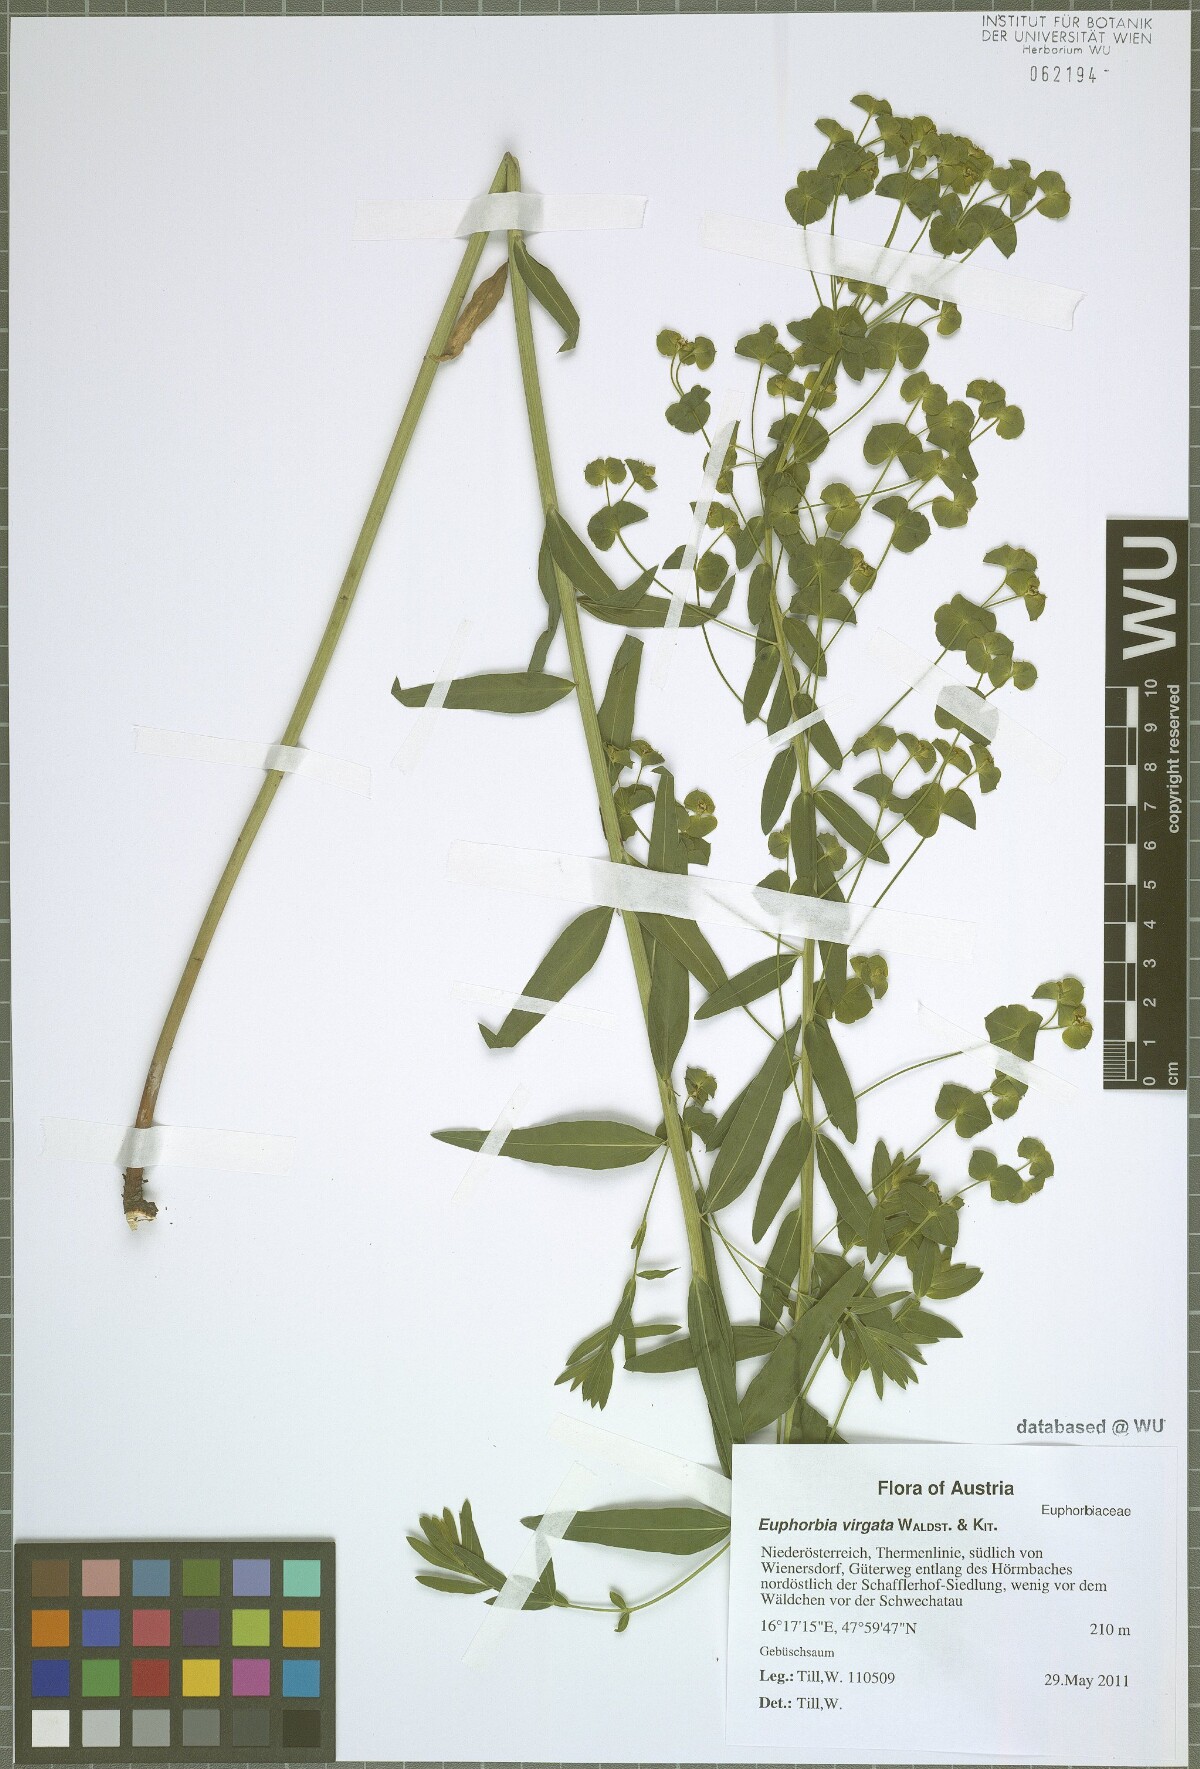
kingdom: Plantae
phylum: Tracheophyta
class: Magnoliopsida
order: Malpighiales
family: Euphorbiaceae
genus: Euphorbia
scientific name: Euphorbia virgata
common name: Leafy spurge
